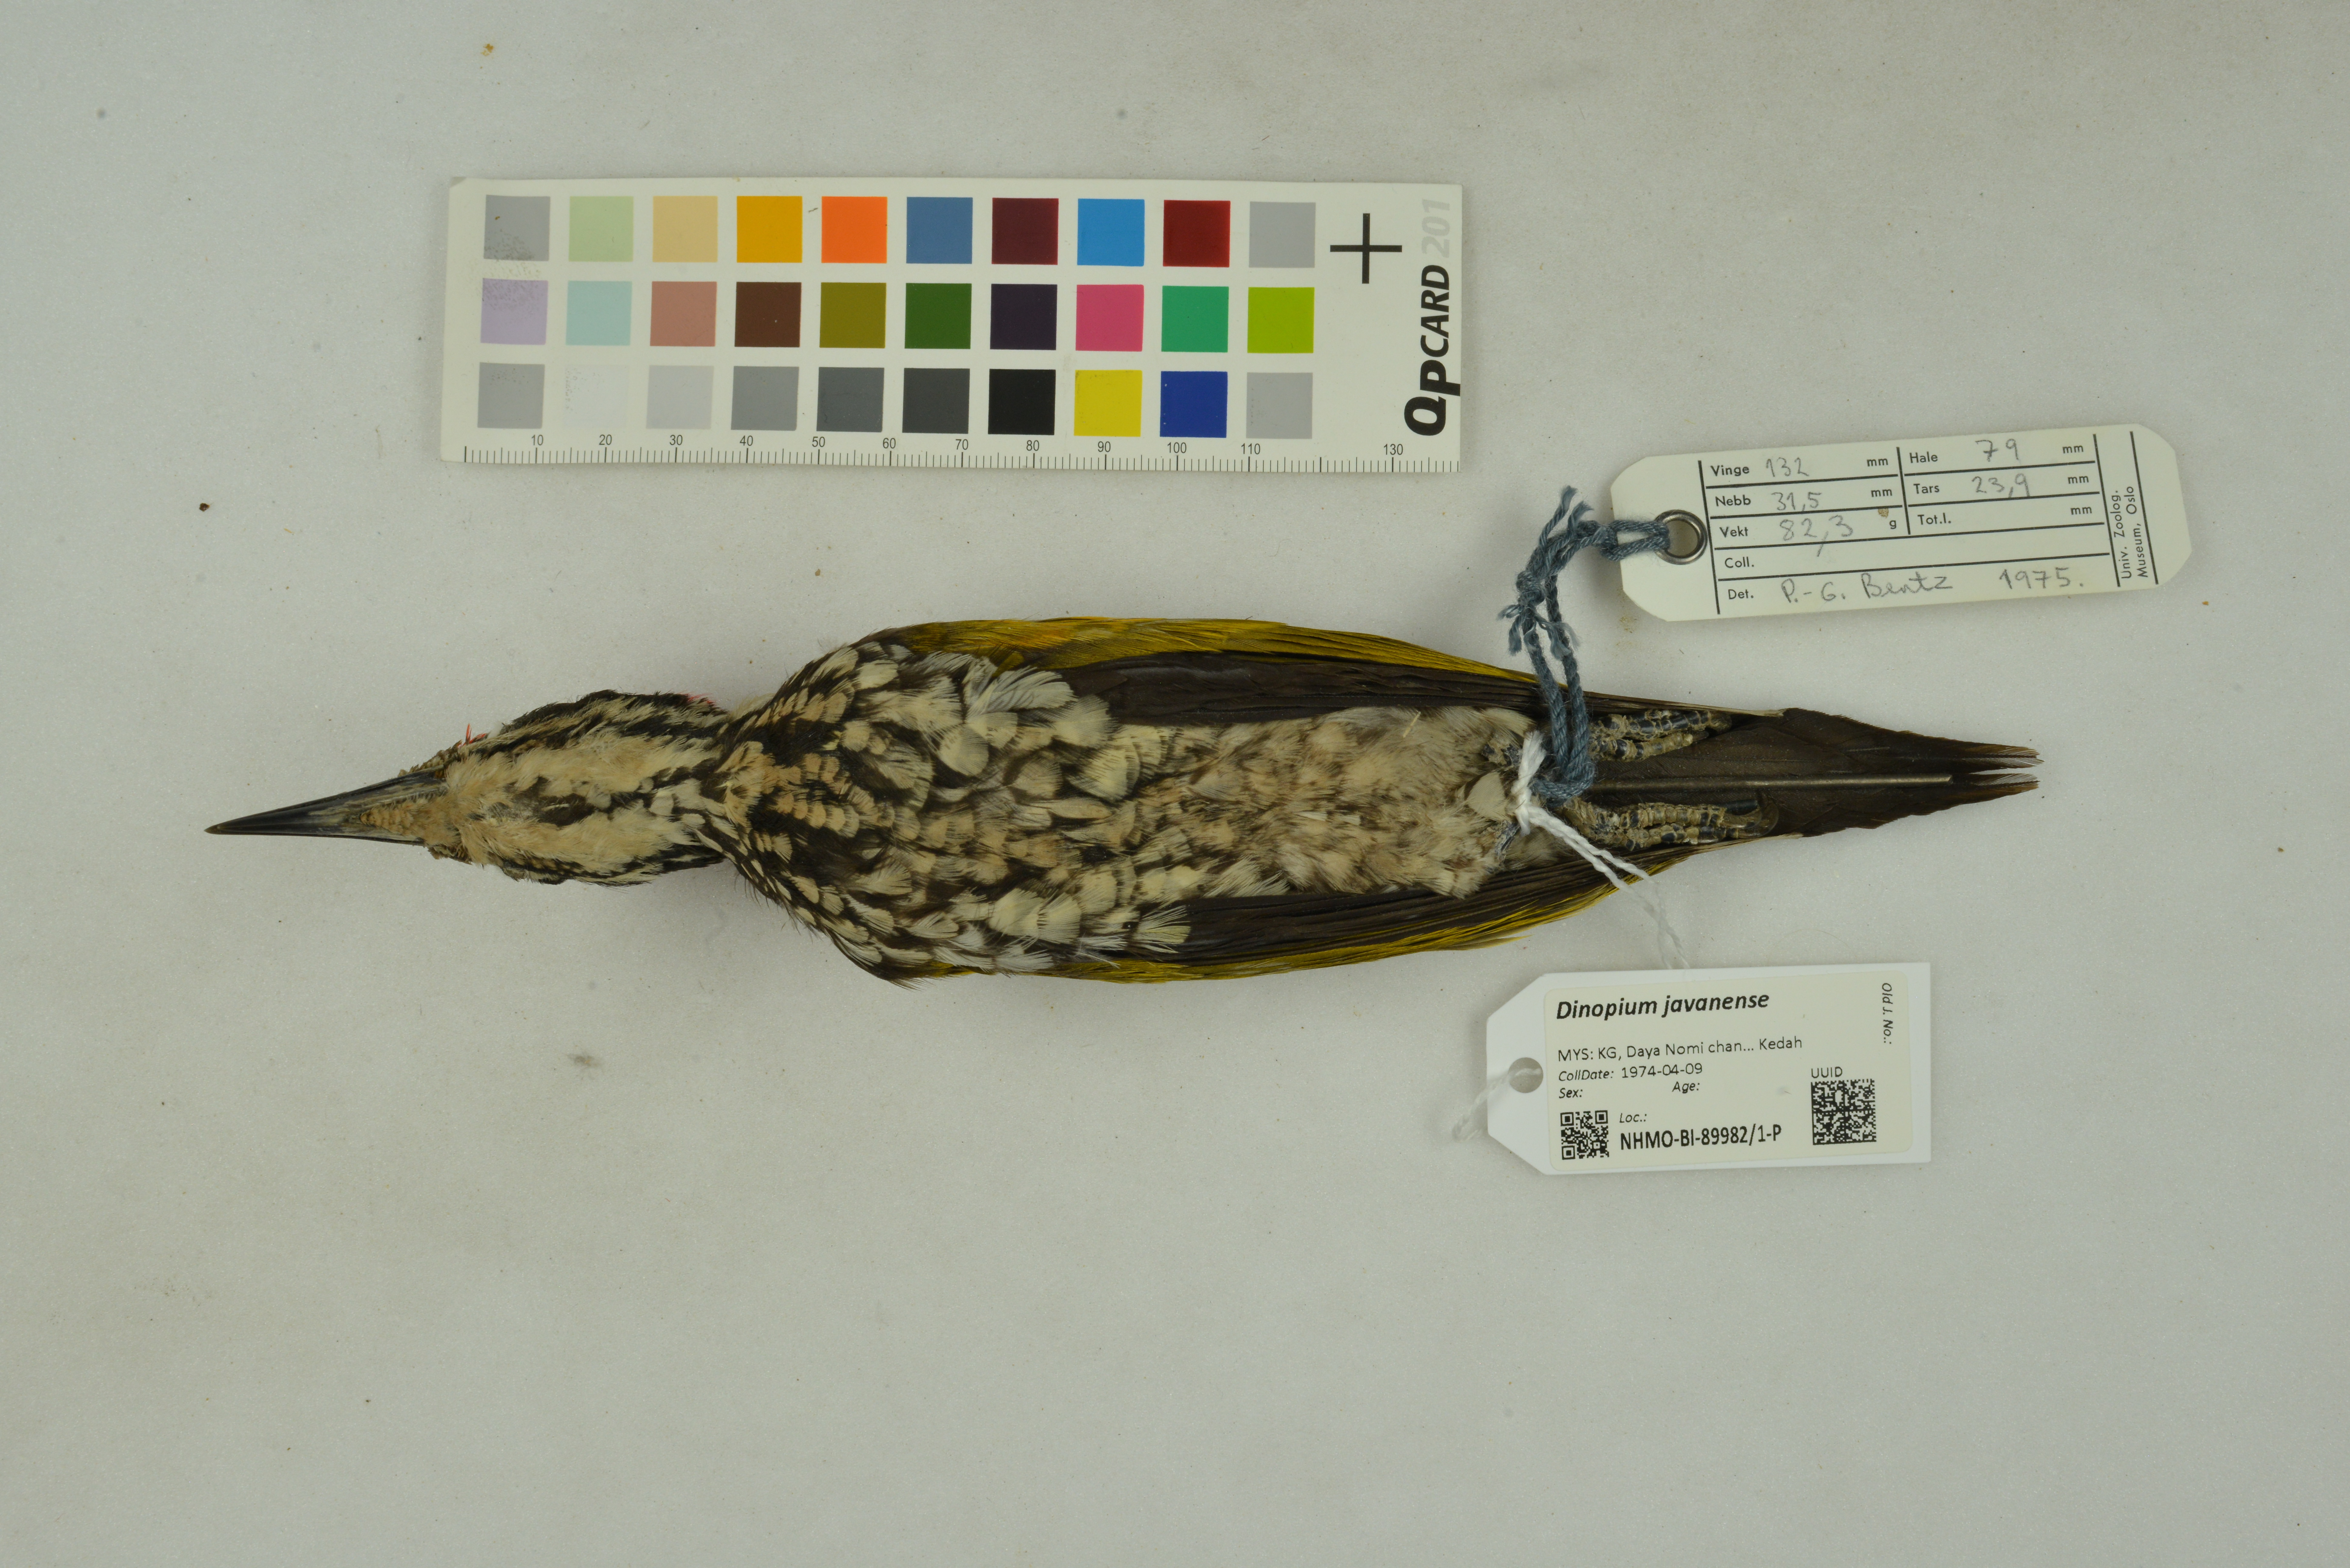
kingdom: Animalia
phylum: Chordata
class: Aves
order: Piciformes
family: Picidae
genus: Dinopium
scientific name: Dinopium javanense
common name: Common flameback
